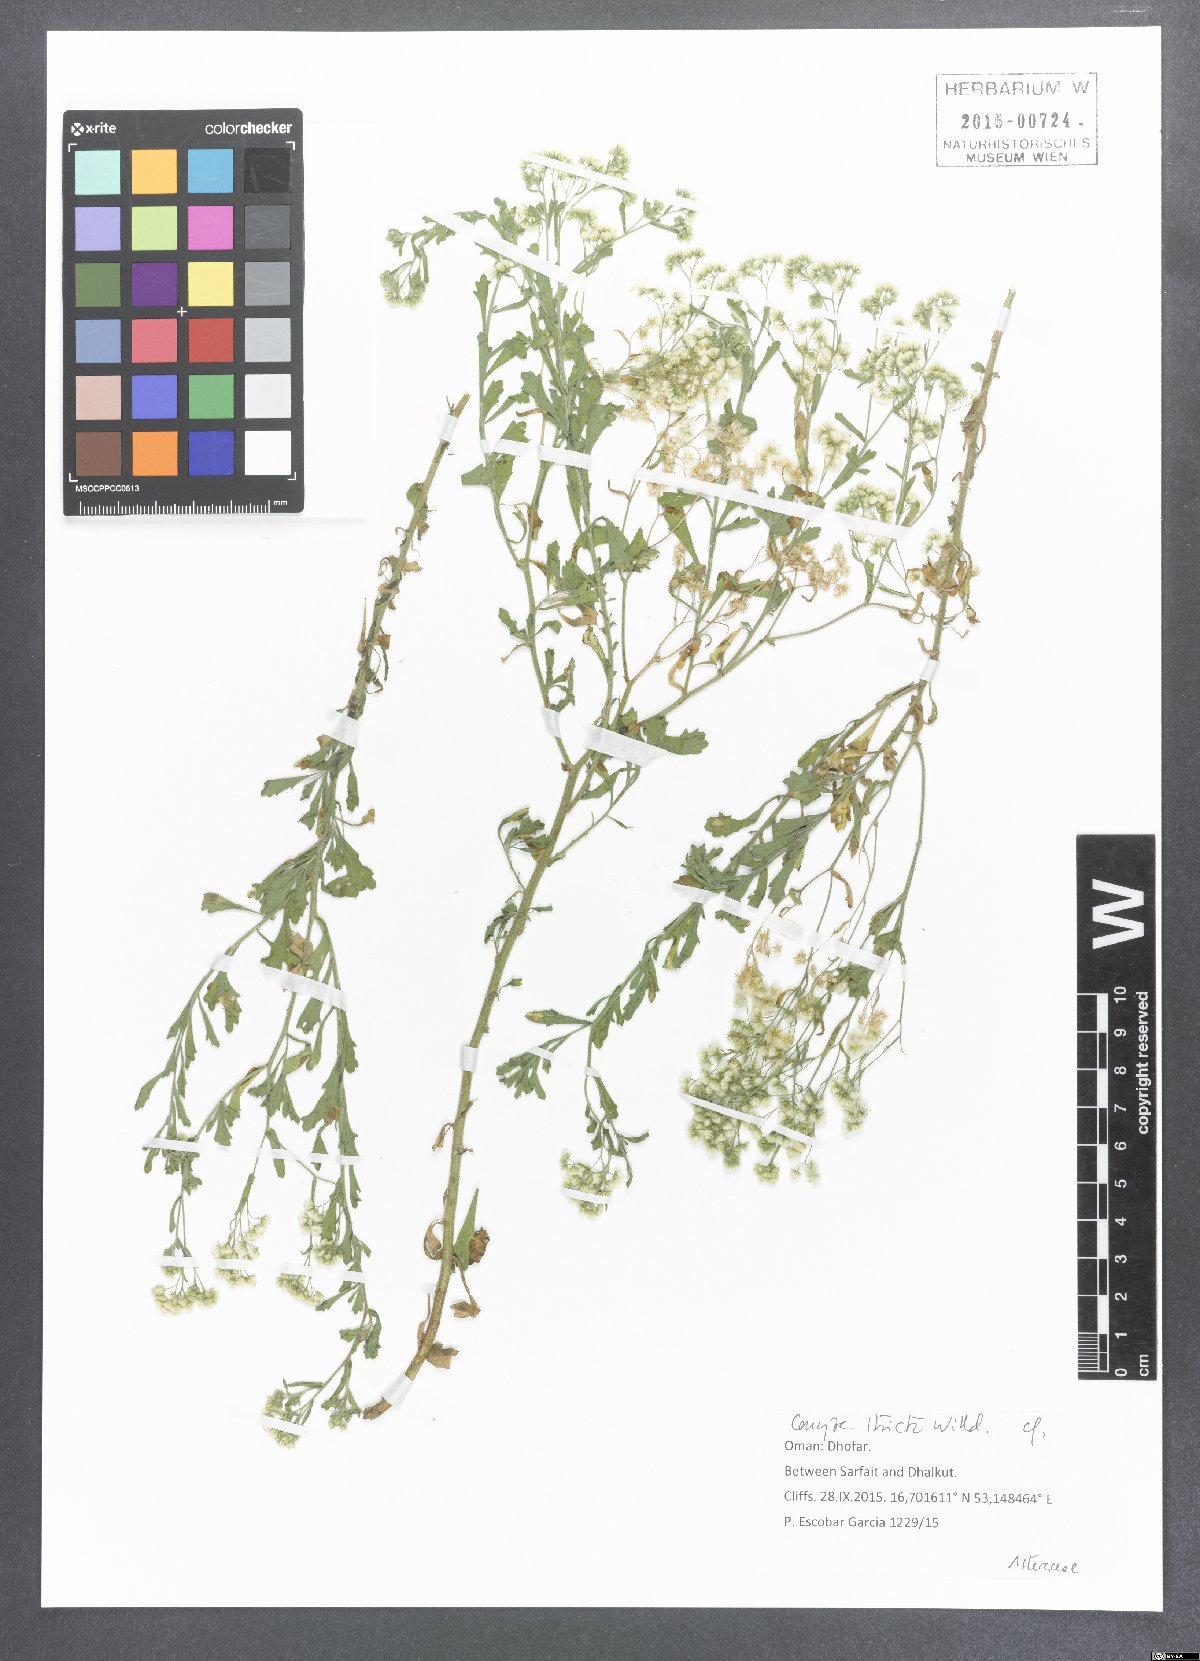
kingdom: Plantae
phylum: Tracheophyta
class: Magnoliopsida
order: Asterales
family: Asteraceae
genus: Nidorella
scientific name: Nidorella triloba
